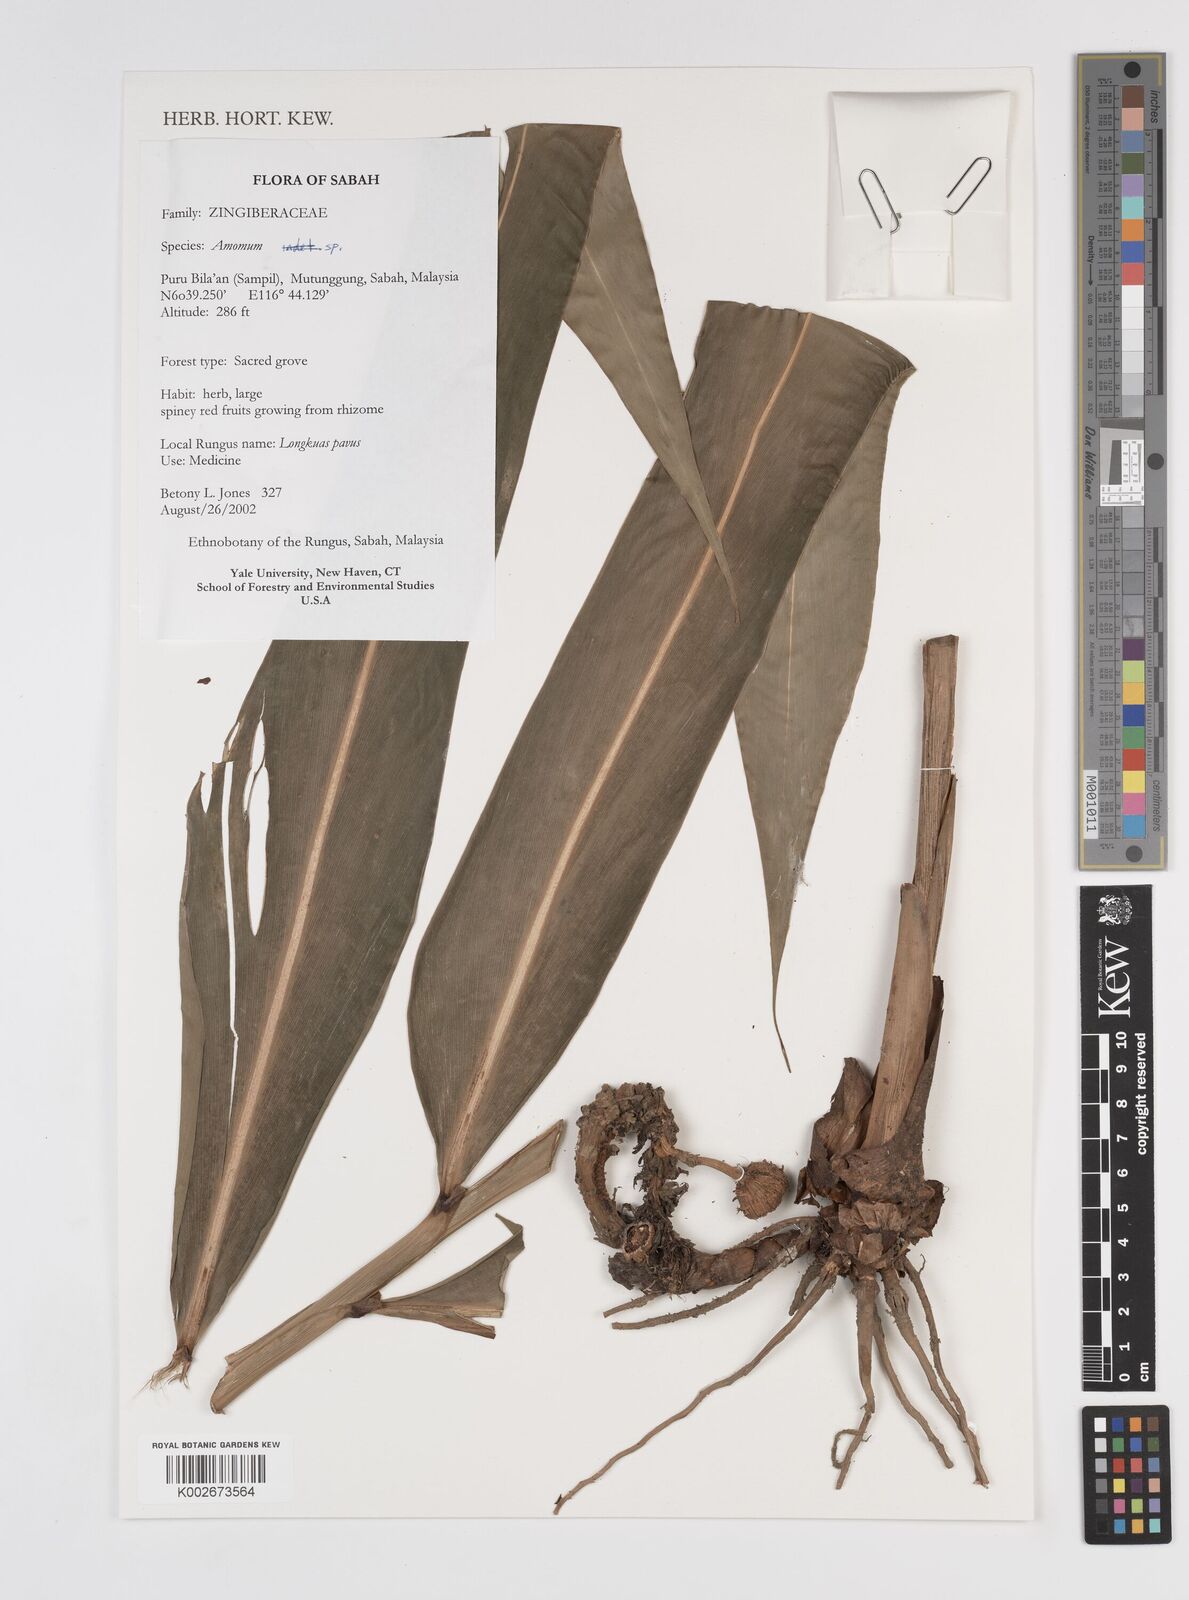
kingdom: Plantae
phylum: Tracheophyta
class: Liliopsida
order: Zingiberales
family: Zingiberaceae
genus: Amomum
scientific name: Amomum
